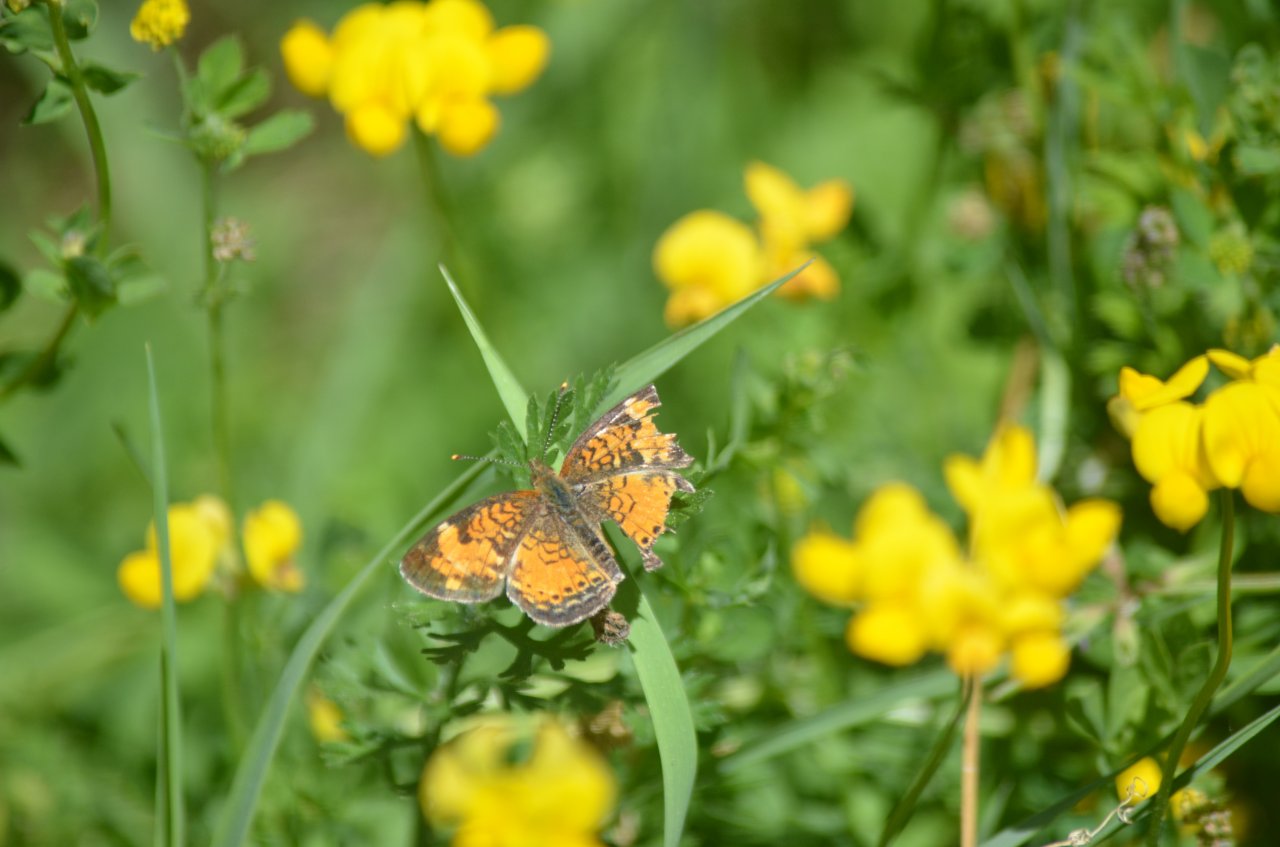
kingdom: Animalia
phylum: Arthropoda
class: Insecta
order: Lepidoptera
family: Nymphalidae
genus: Phyciodes
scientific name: Phyciodes tharos
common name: Northern Crescent
